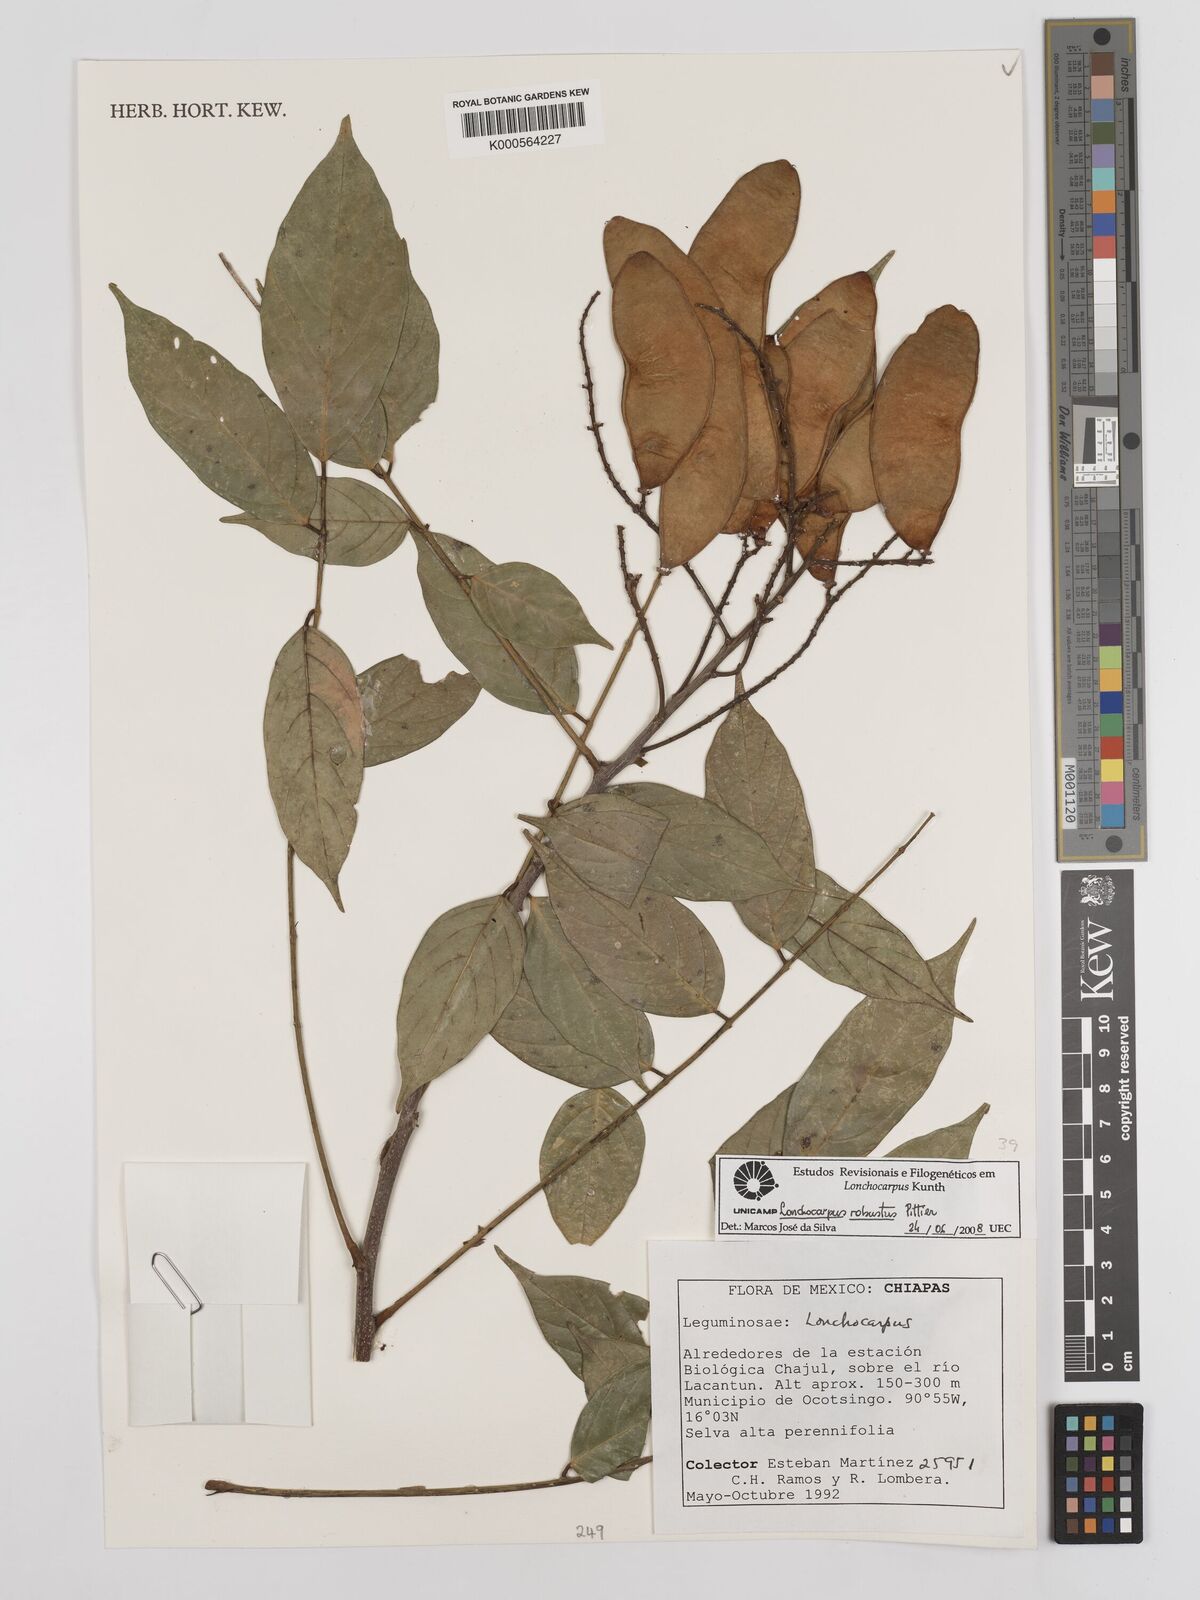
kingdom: Plantae
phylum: Tracheophyta
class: Magnoliopsida
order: Fabales
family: Fabaceae
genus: Lonchocarpus
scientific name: Lonchocarpus robustus
